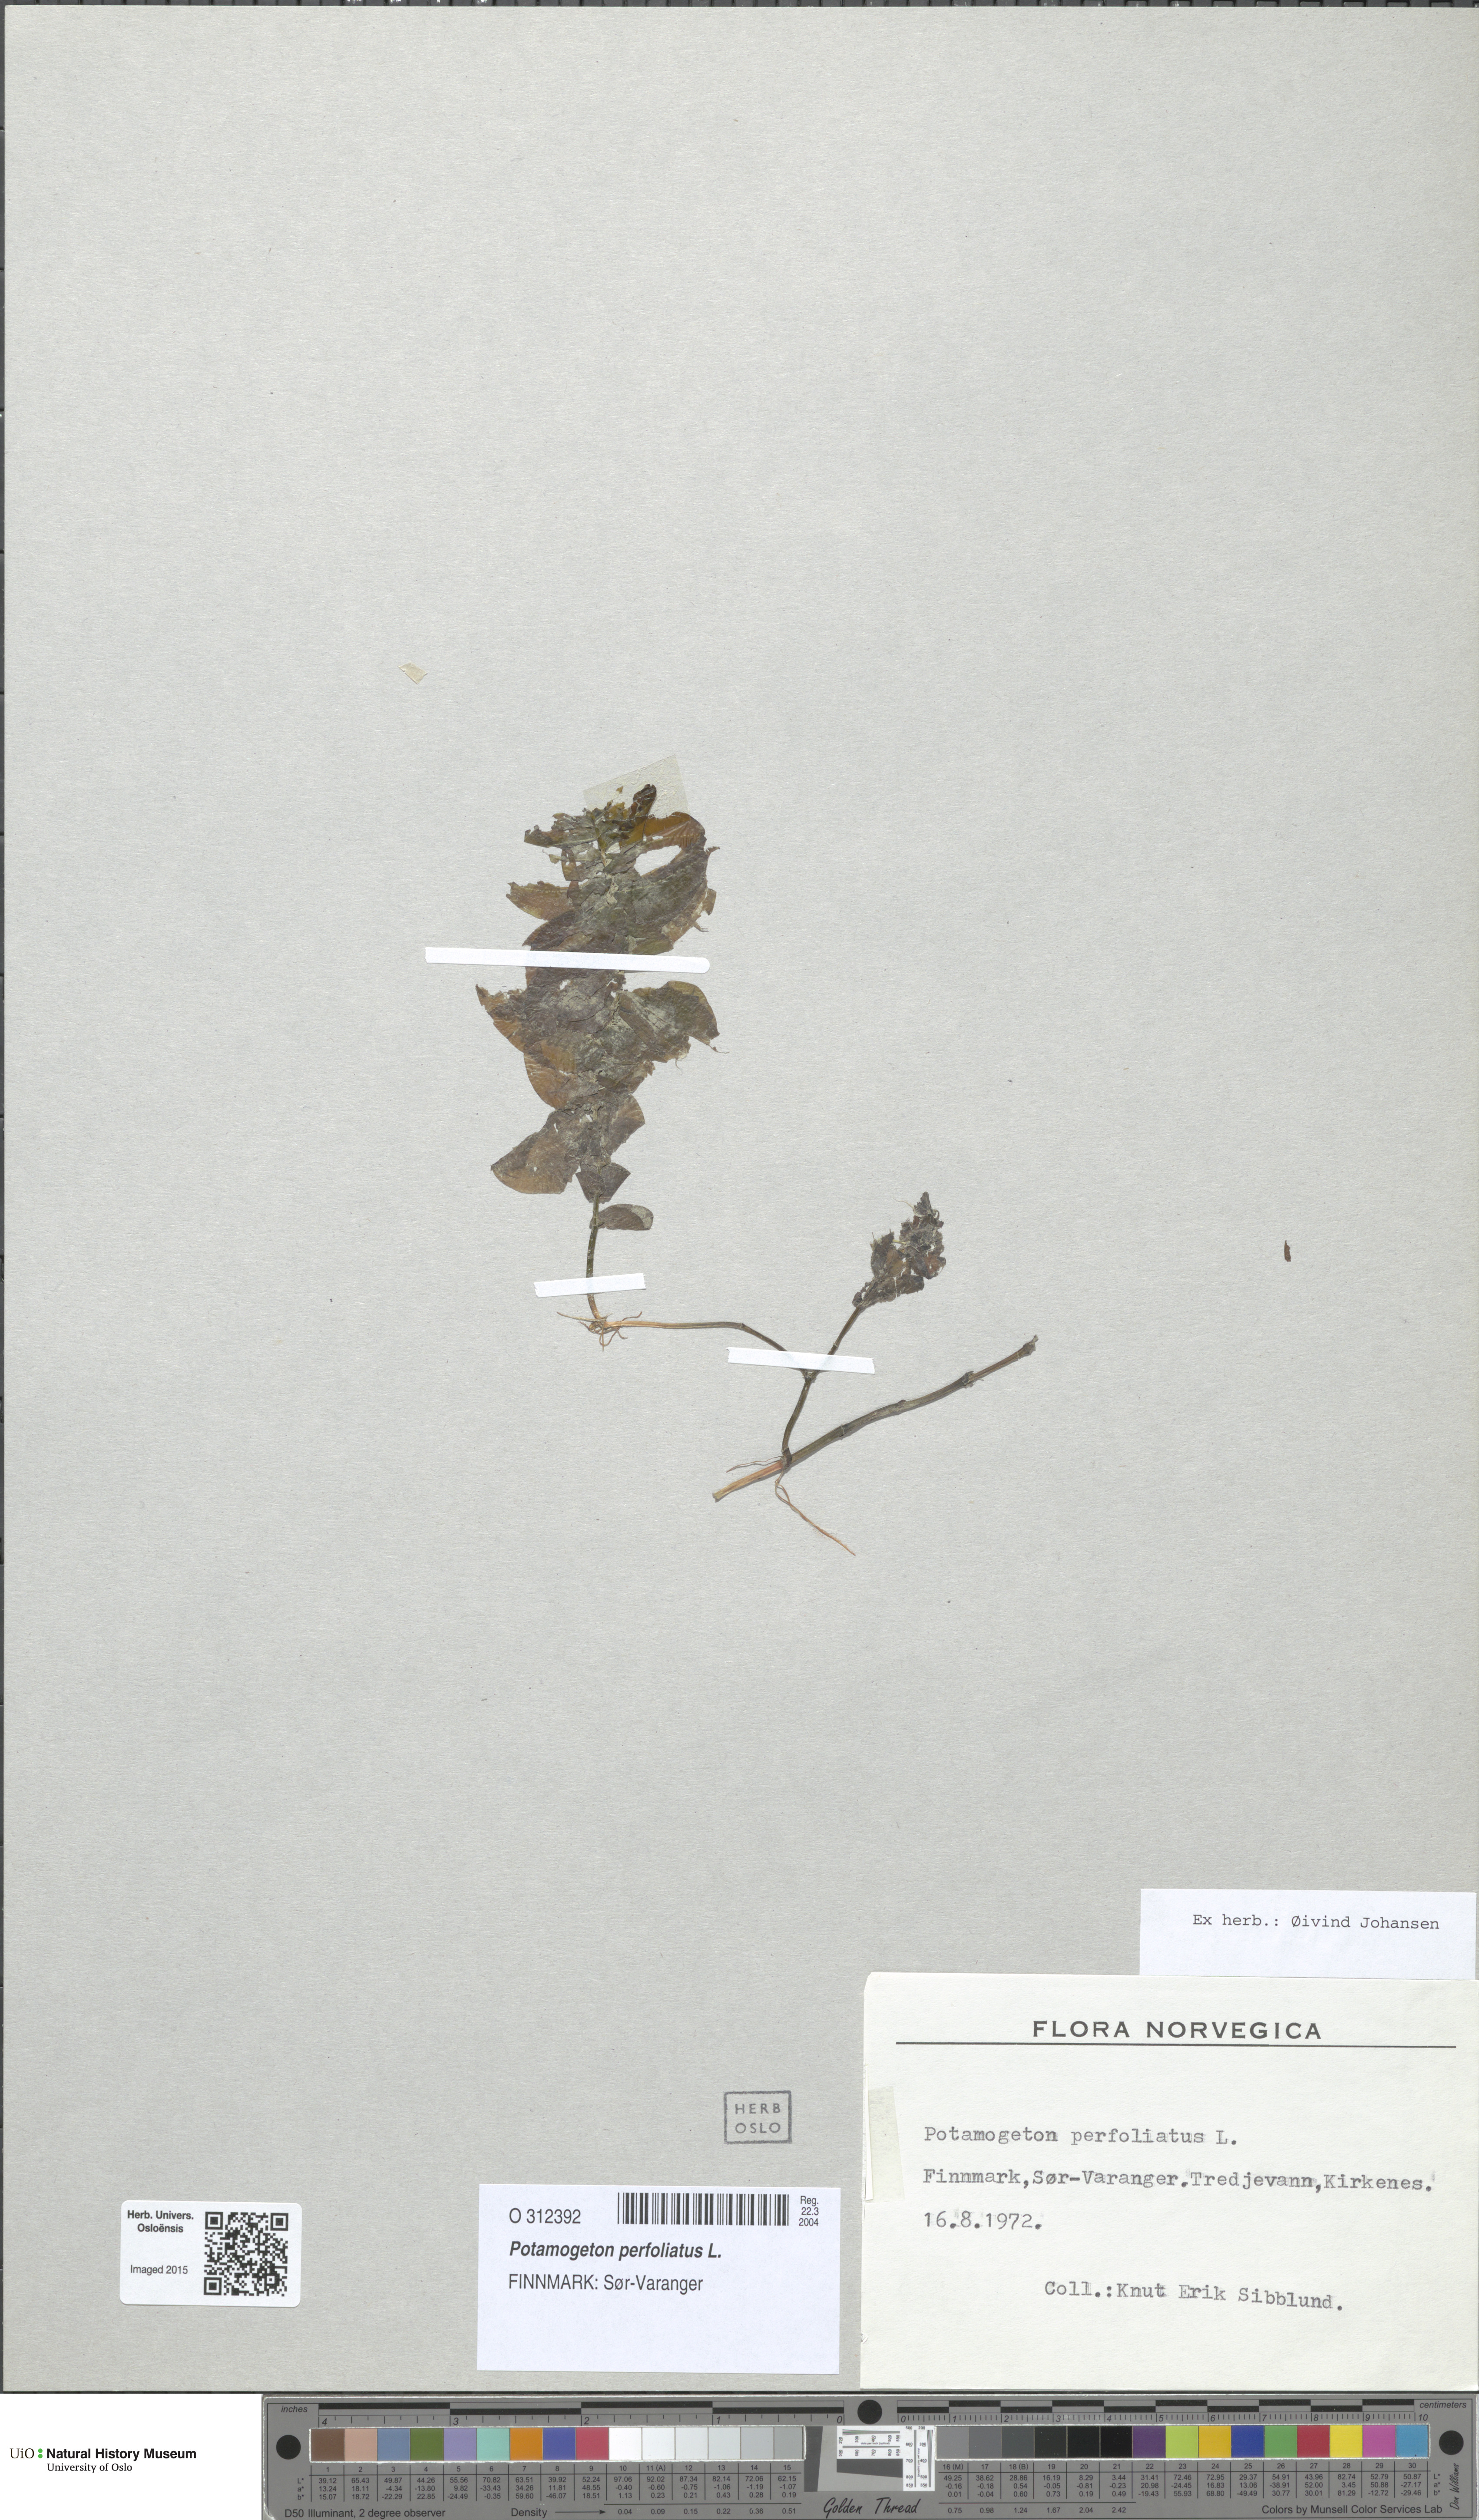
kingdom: Plantae
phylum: Tracheophyta
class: Liliopsida
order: Alismatales
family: Potamogetonaceae
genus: Potamogeton
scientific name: Potamogeton perfoliatus
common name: Perfoliate pondweed
